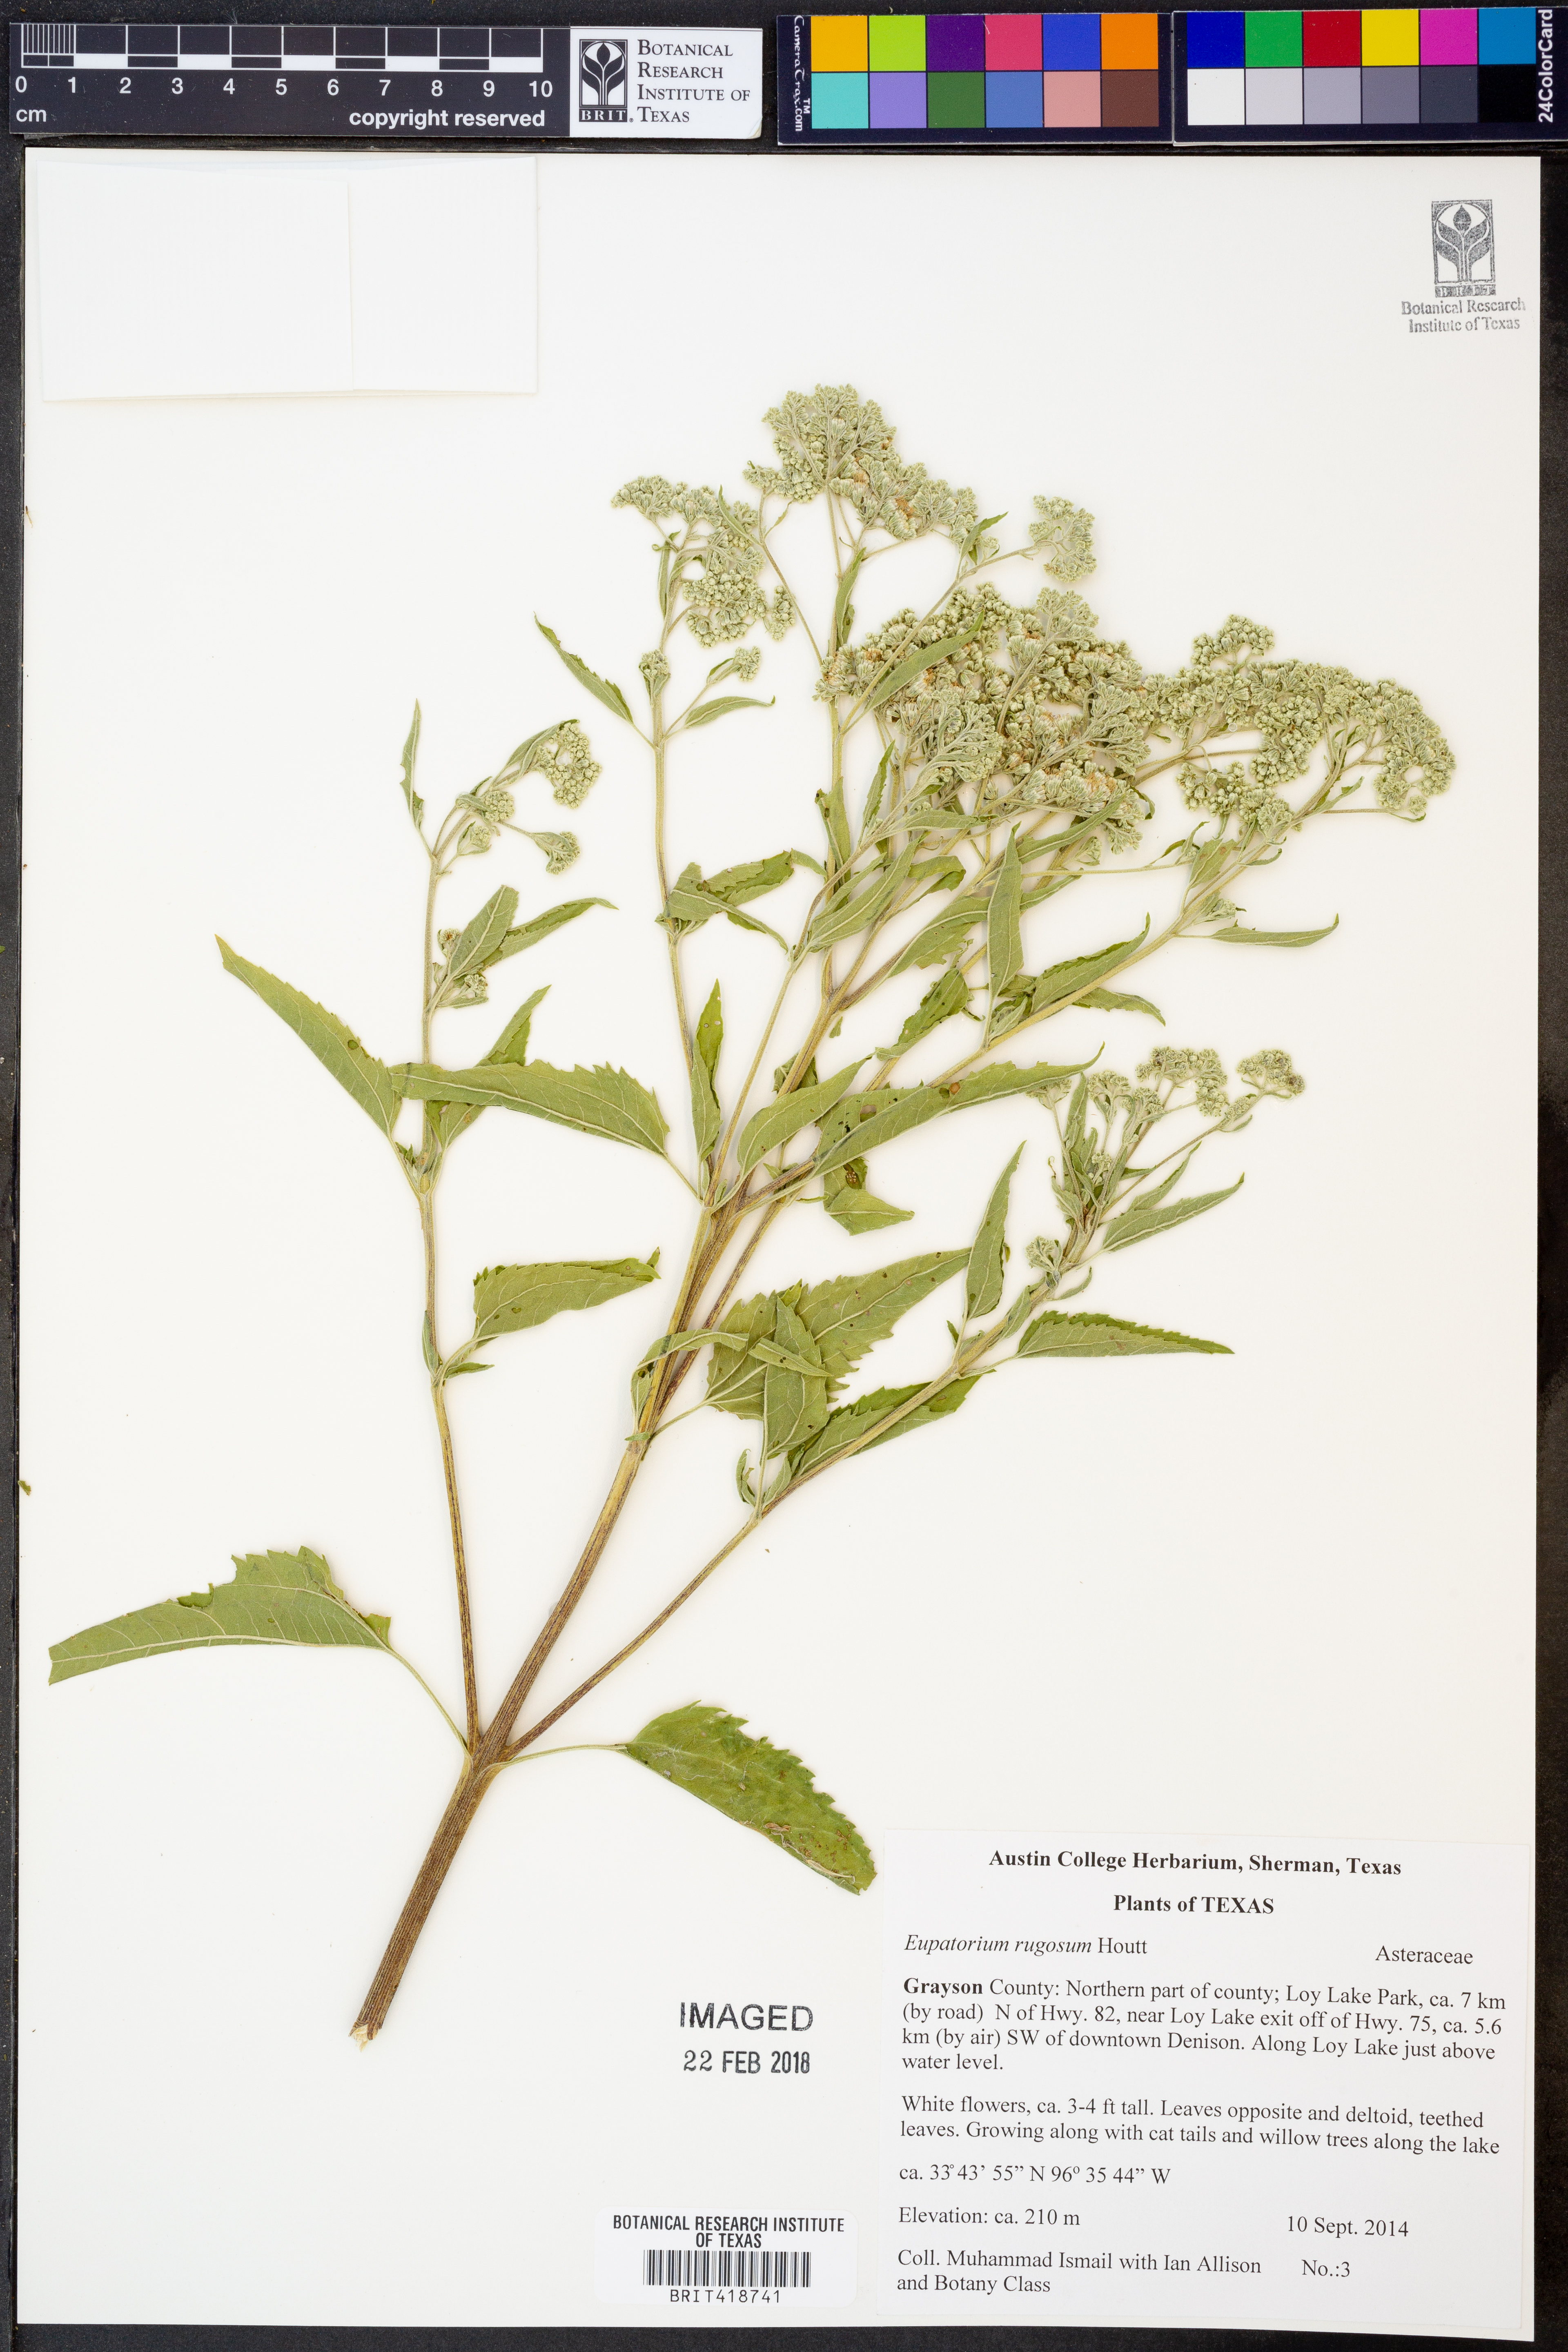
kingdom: Plantae
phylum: Tracheophyta
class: Magnoliopsida
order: Asterales
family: Asteraceae
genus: Cronquistianthus
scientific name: Cronquistianthus bulliferus
